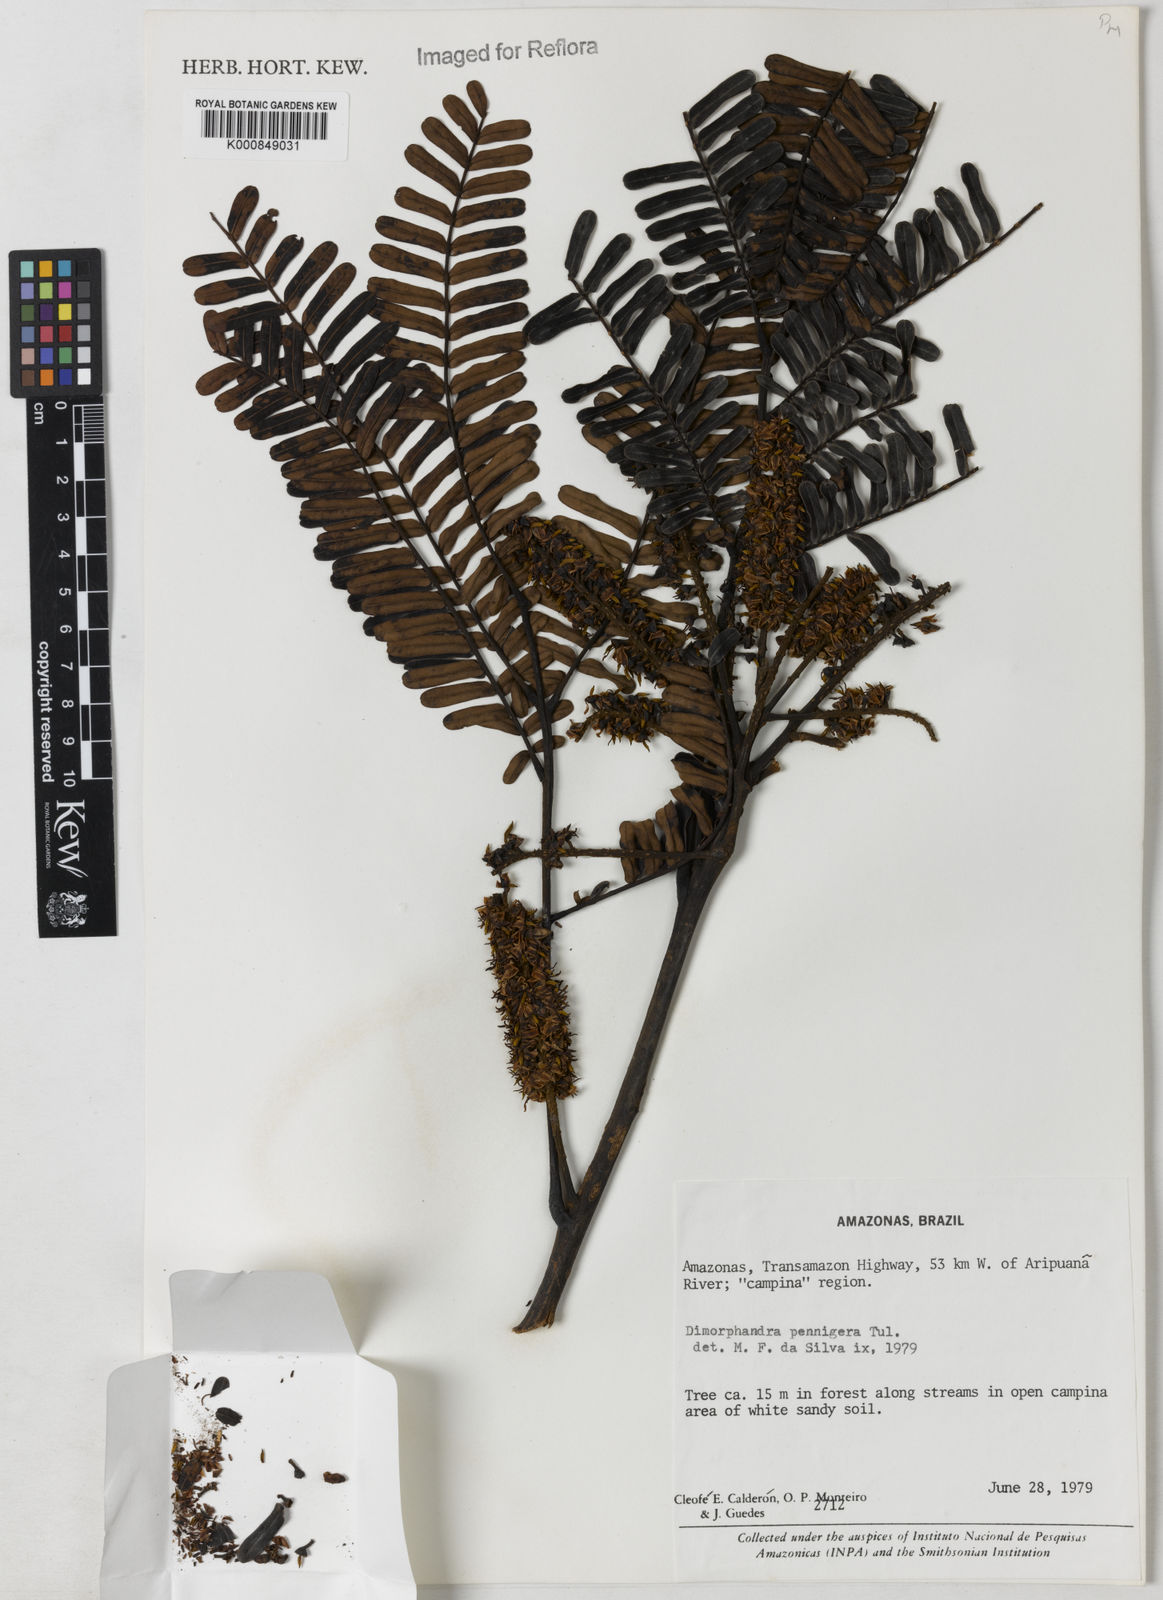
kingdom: Plantae
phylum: Tracheophyta
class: Magnoliopsida
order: Fabales
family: Fabaceae
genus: Dimorphandra
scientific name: Dimorphandra pennigera
